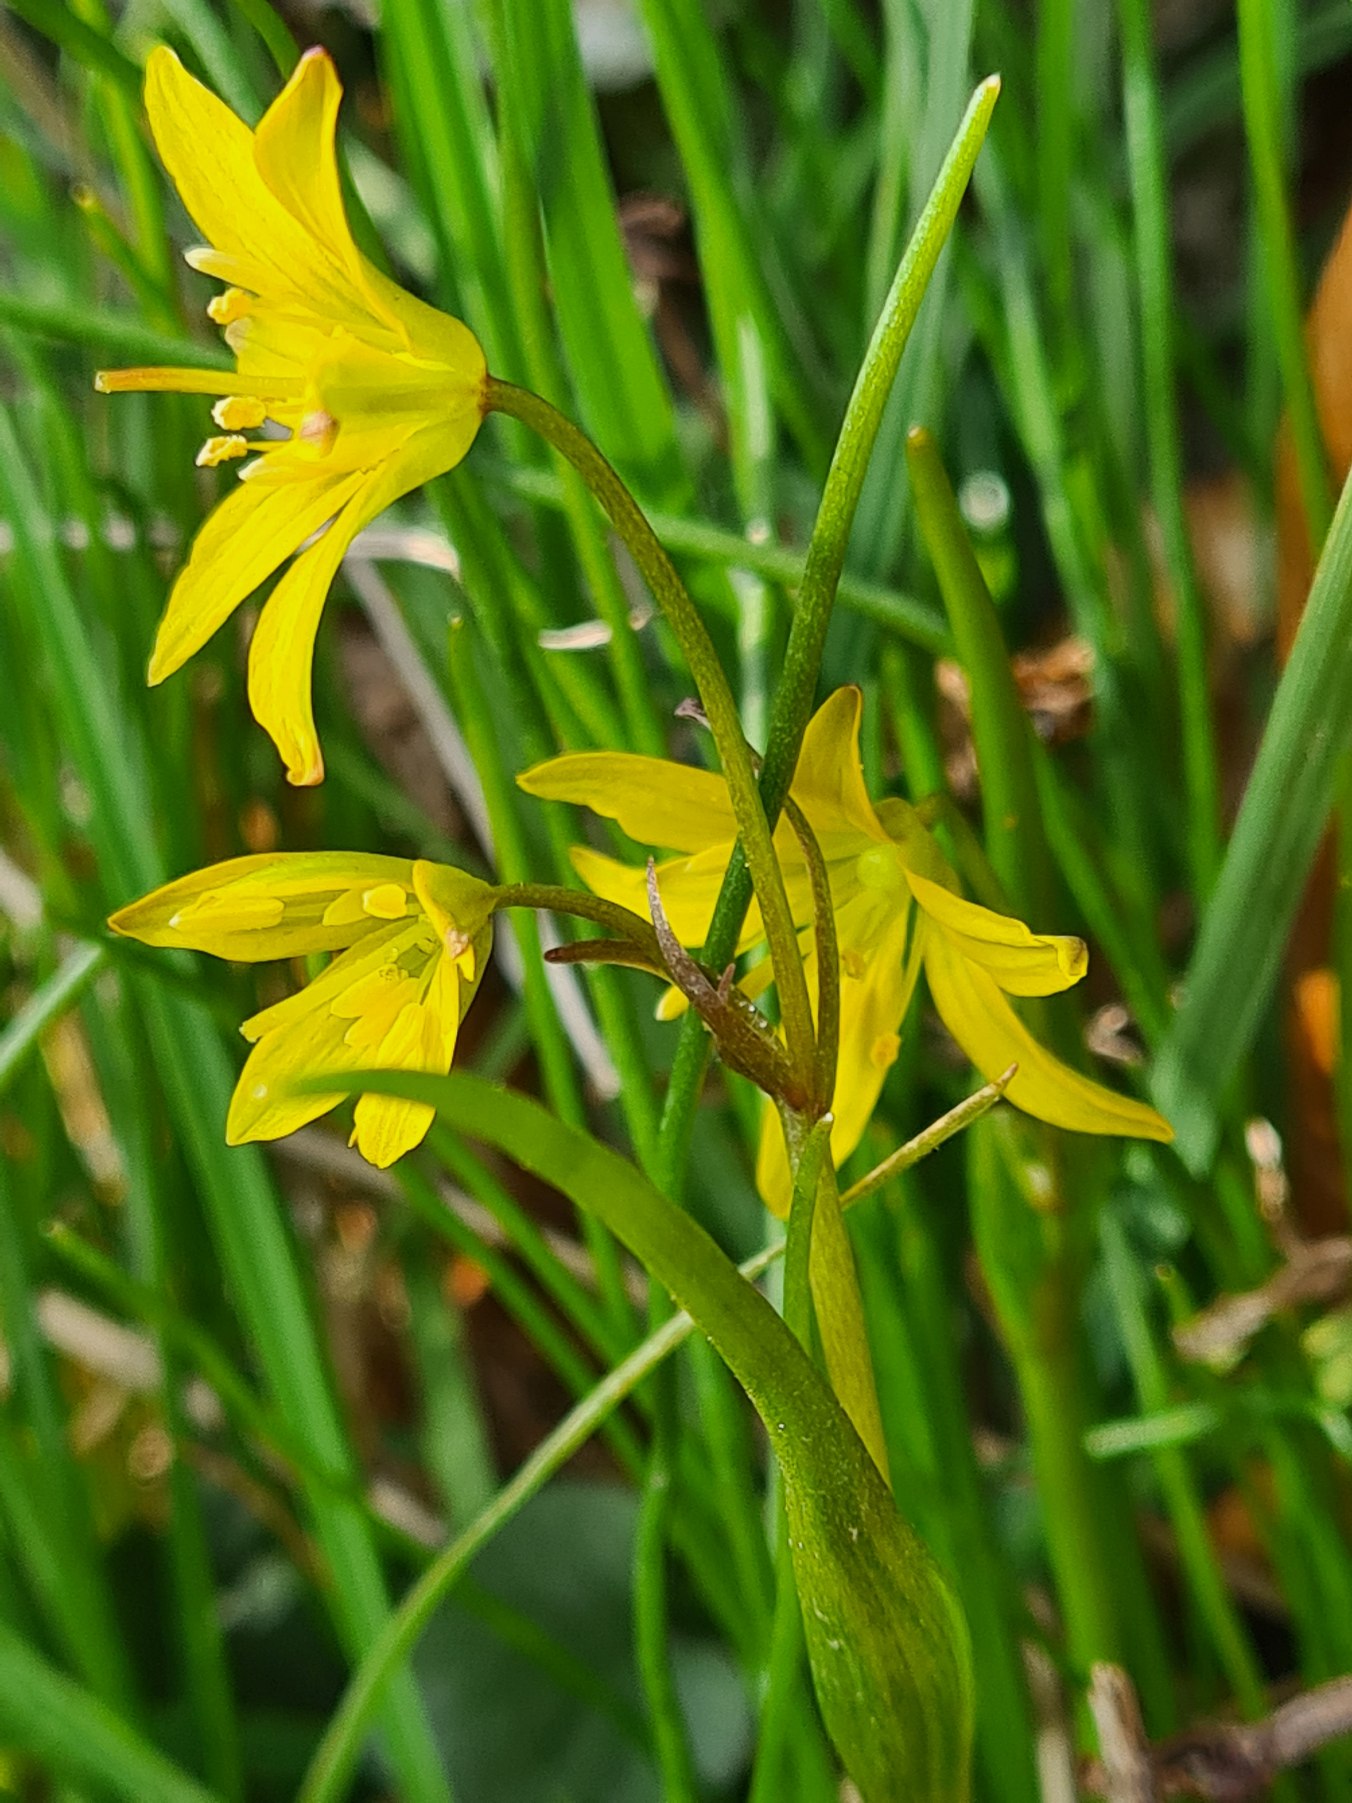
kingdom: Plantae
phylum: Tracheophyta
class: Liliopsida
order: Liliales
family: Liliaceae
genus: Gagea
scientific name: Gagea spathacea
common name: Hylster-guldstjerne
